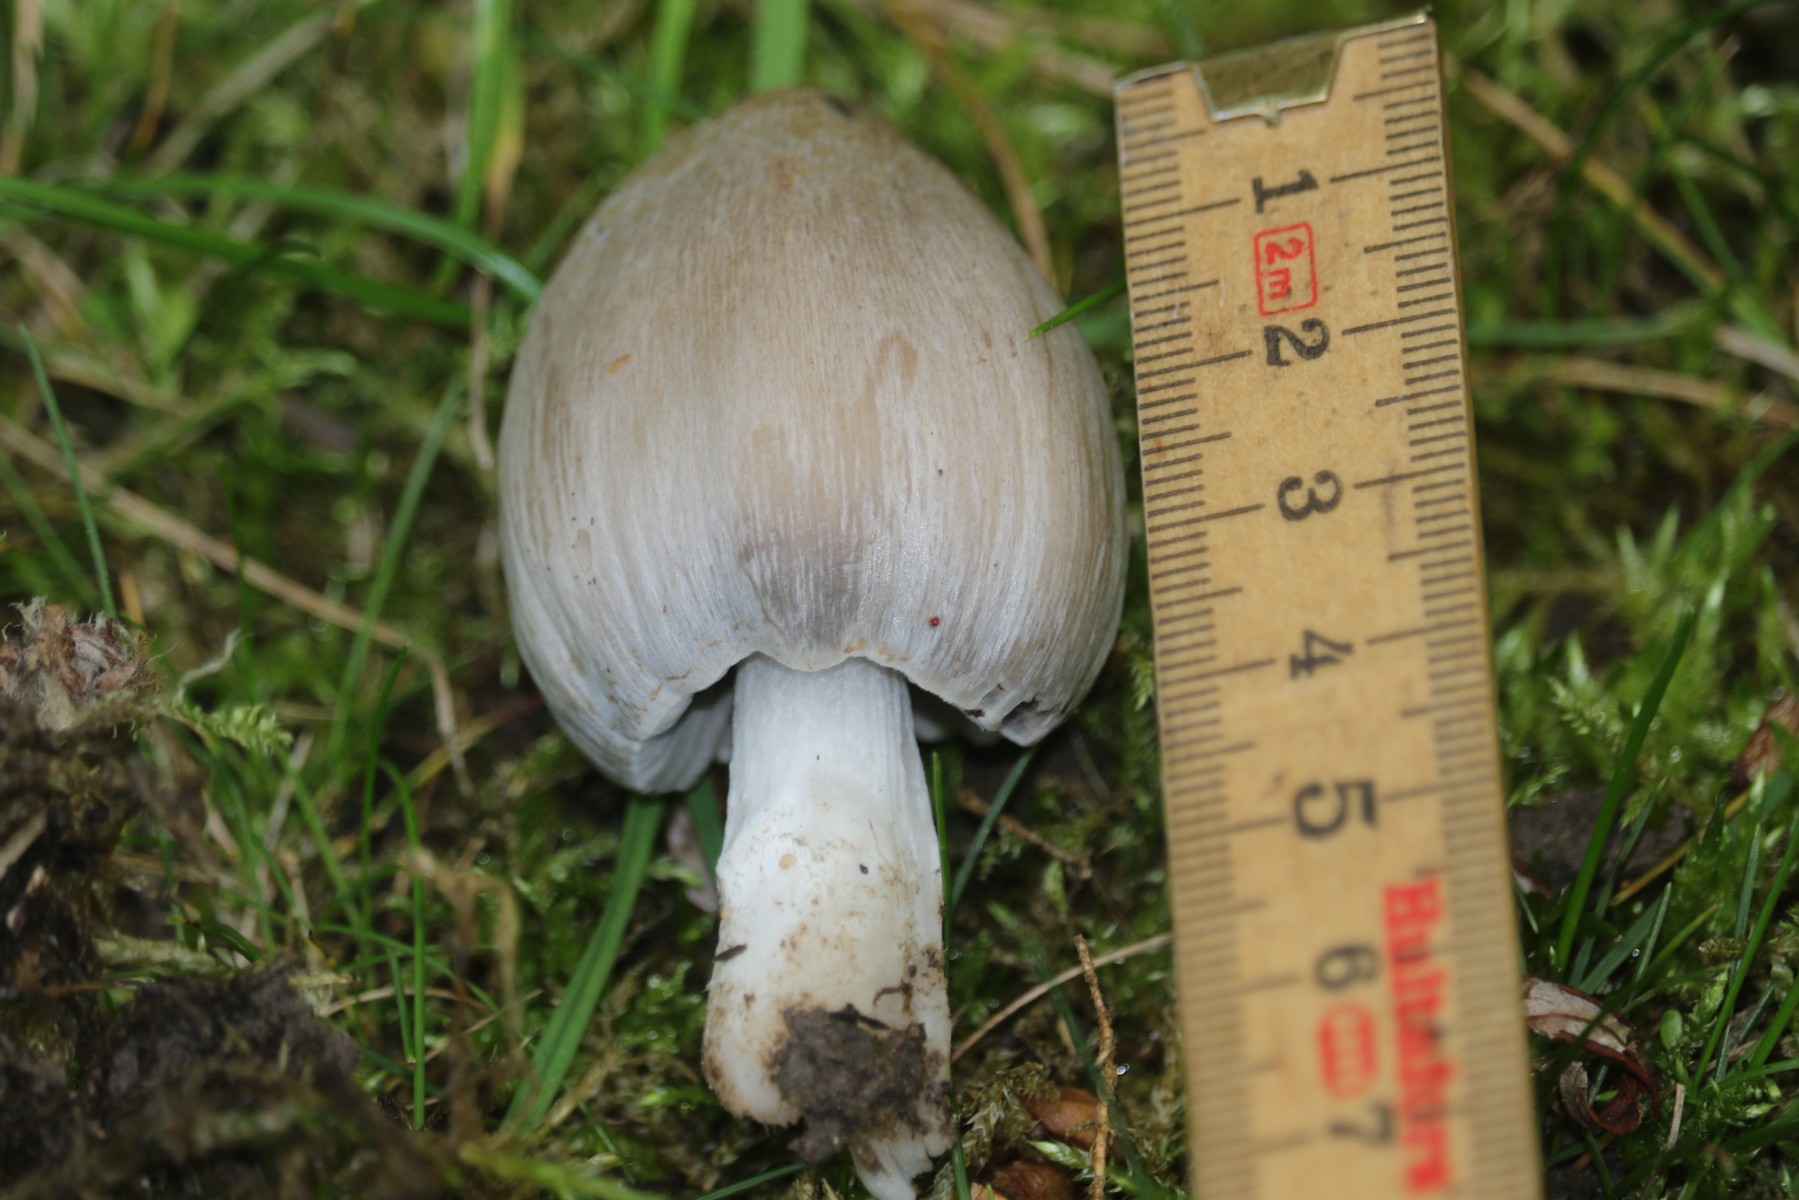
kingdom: Fungi
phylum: Basidiomycota
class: Agaricomycetes
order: Agaricales
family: Psathyrellaceae
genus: Coprinopsis
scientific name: Coprinopsis atramentaria
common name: almindelig blækhat
